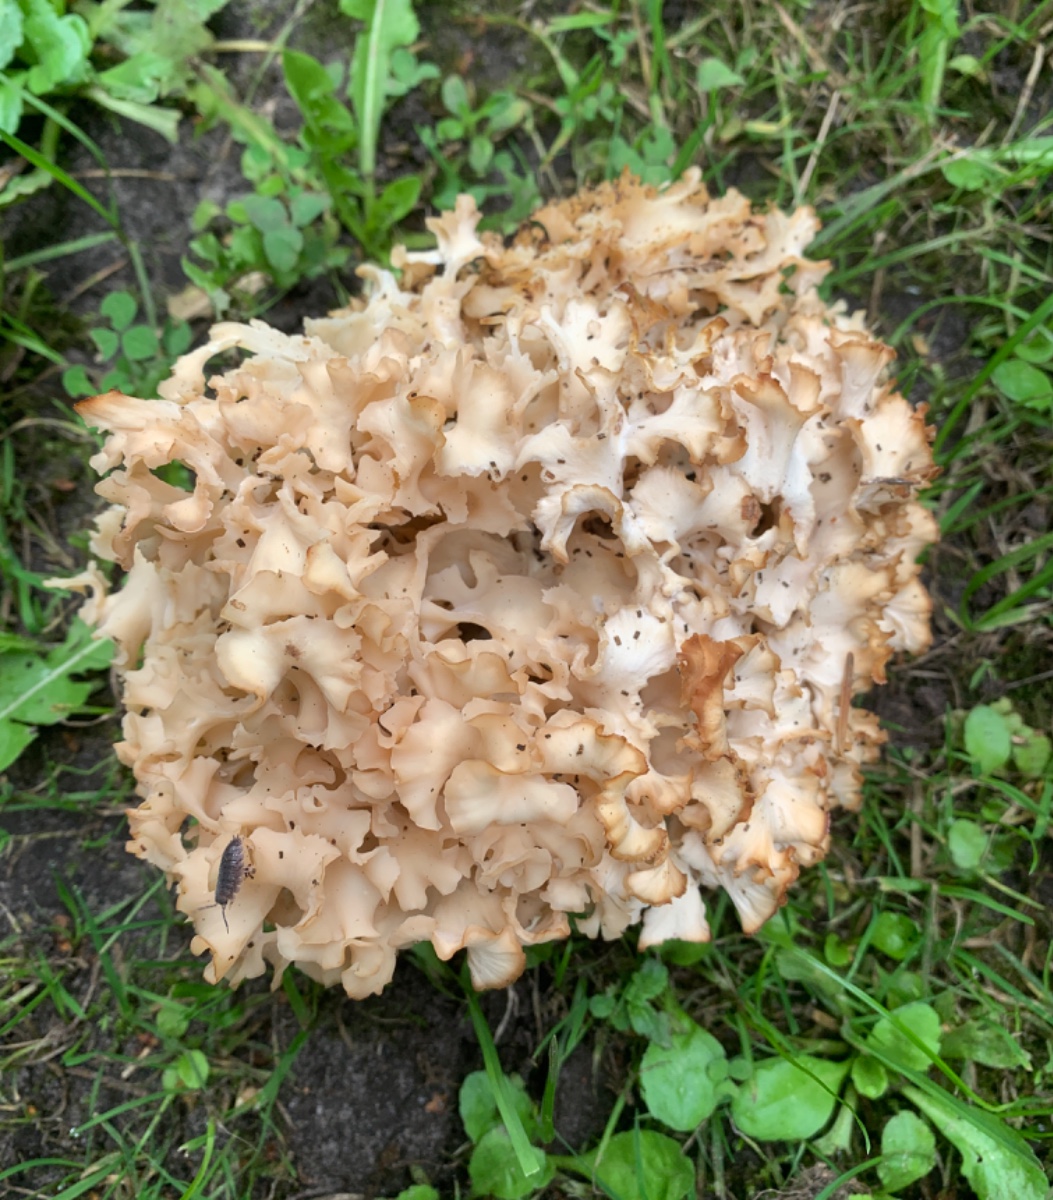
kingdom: Fungi
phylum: Basidiomycota
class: Agaricomycetes
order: Polyporales
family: Sparassidaceae
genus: Sparassis
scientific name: Sparassis crispa
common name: kruset blomkålssvamp
